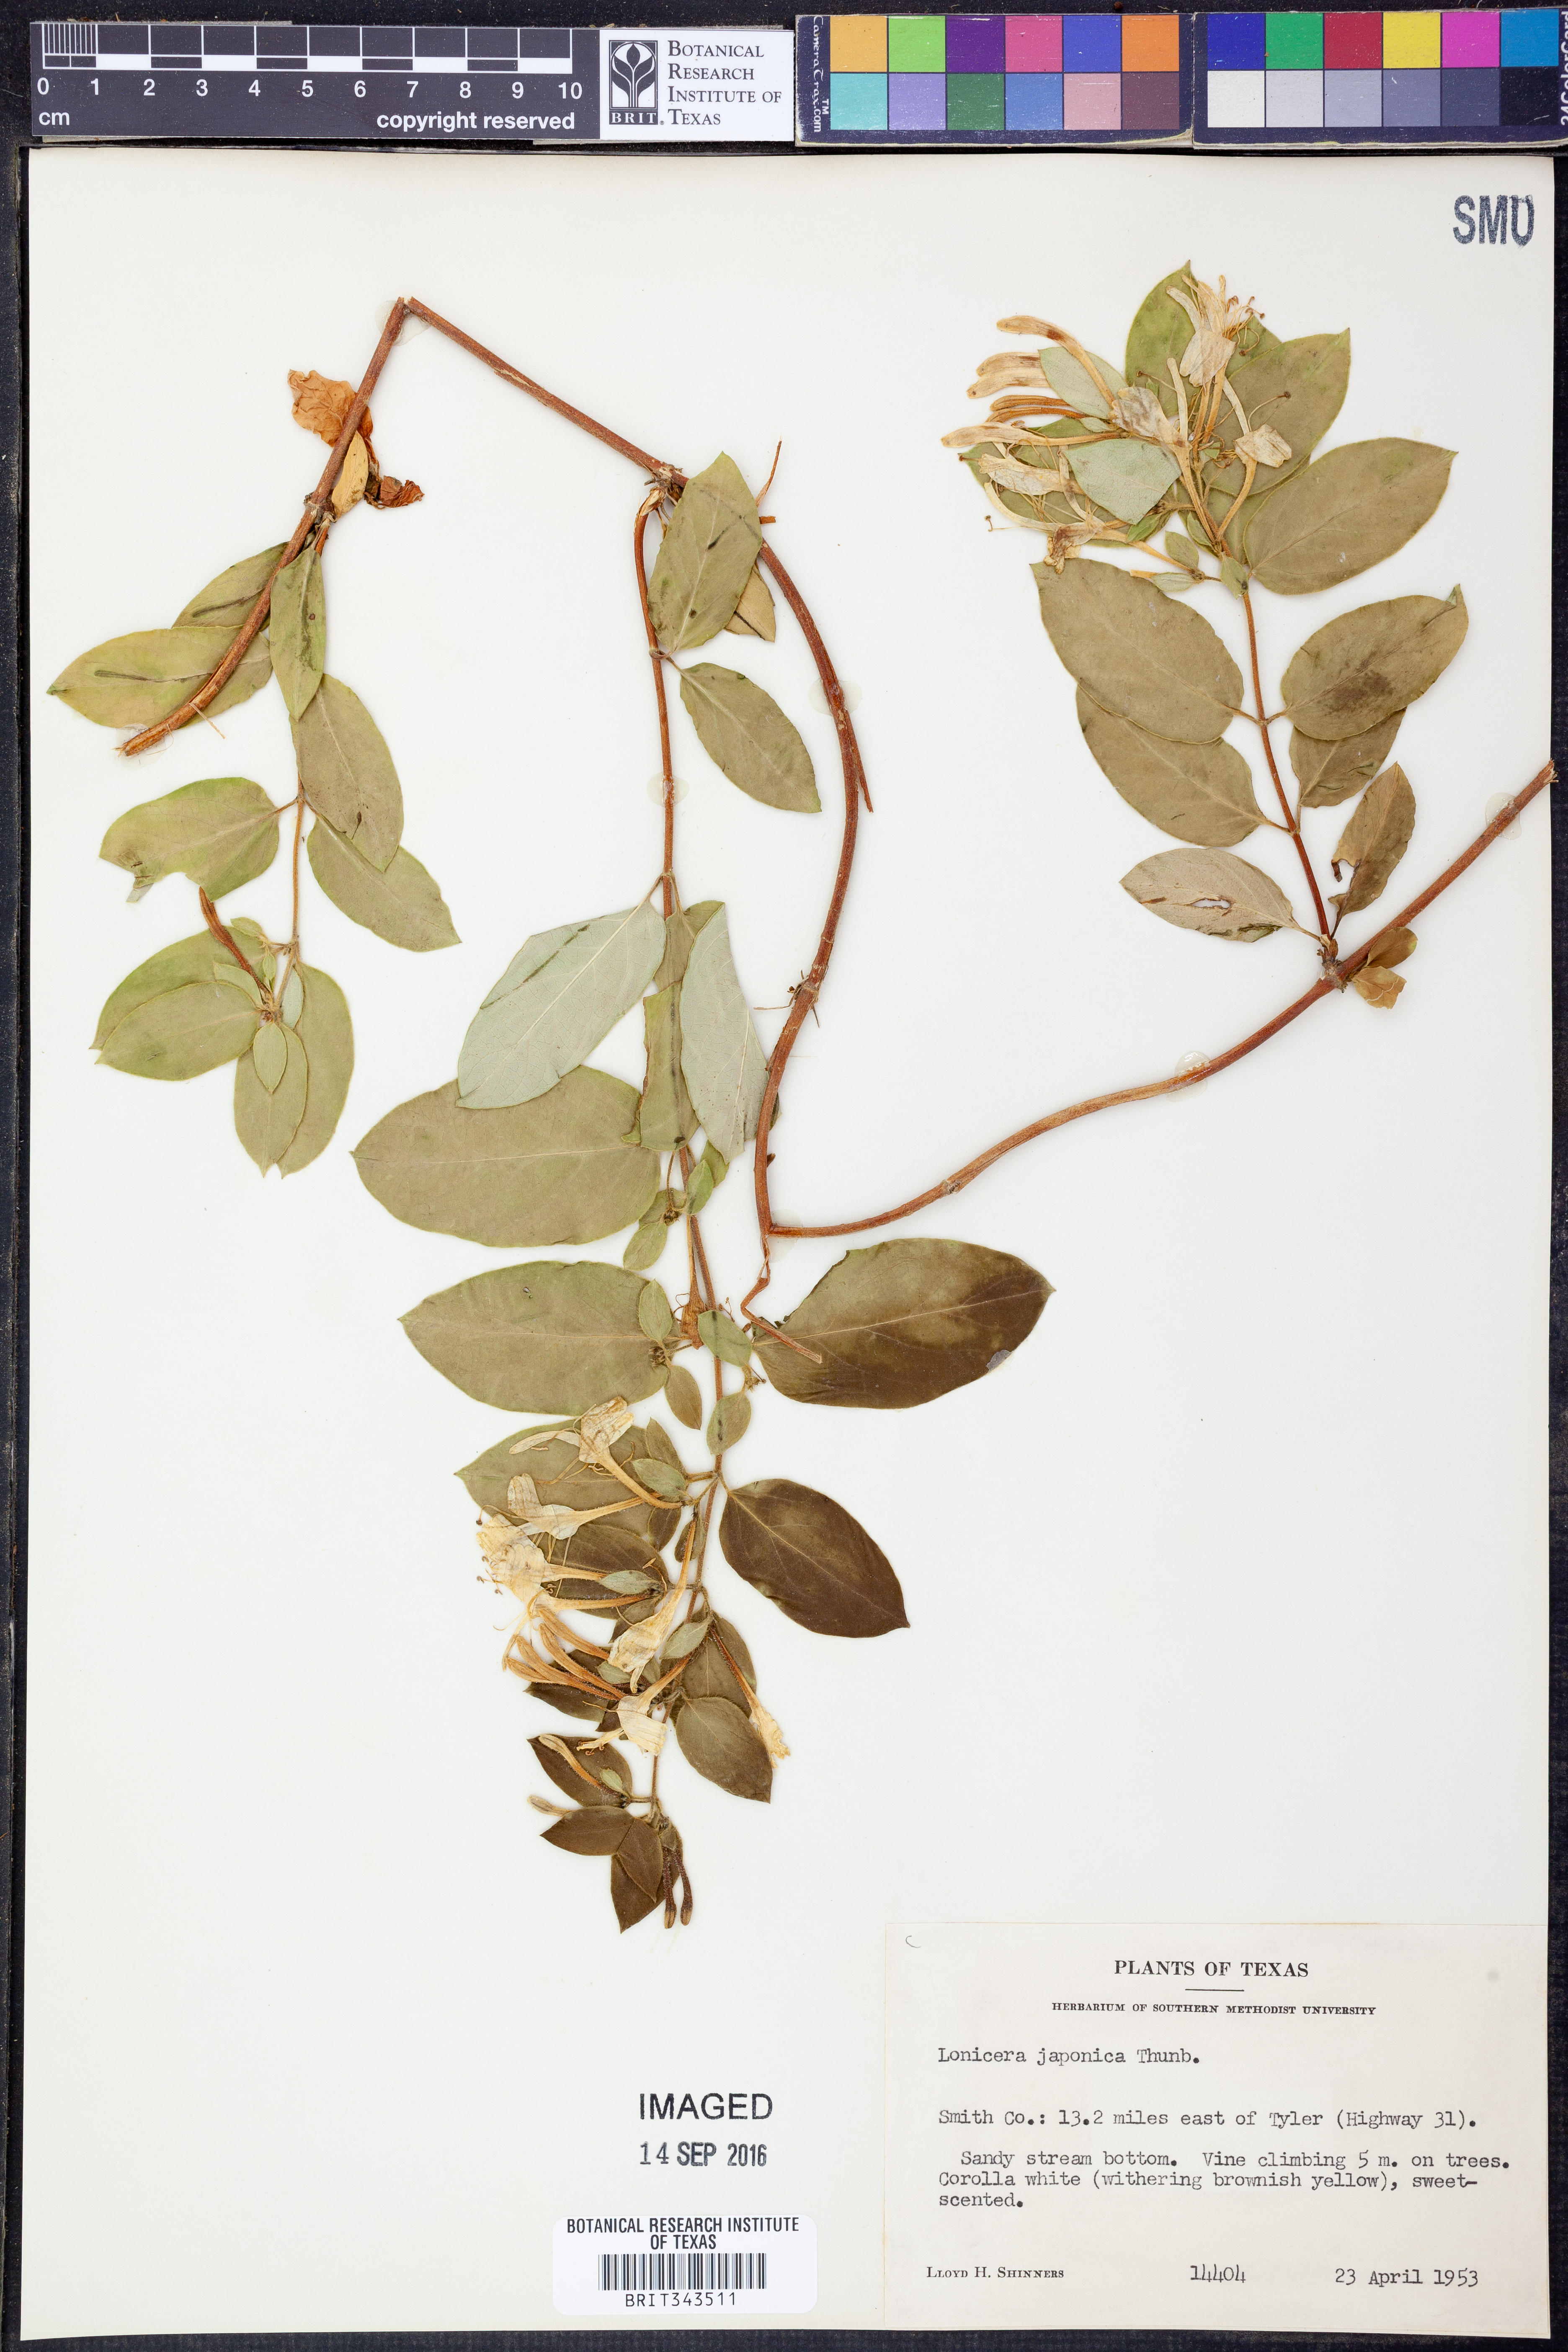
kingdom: Plantae
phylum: Tracheophyta
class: Magnoliopsida
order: Dipsacales
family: Caprifoliaceae
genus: Lonicera
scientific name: Lonicera japonica
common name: Japanese honeysuckle
